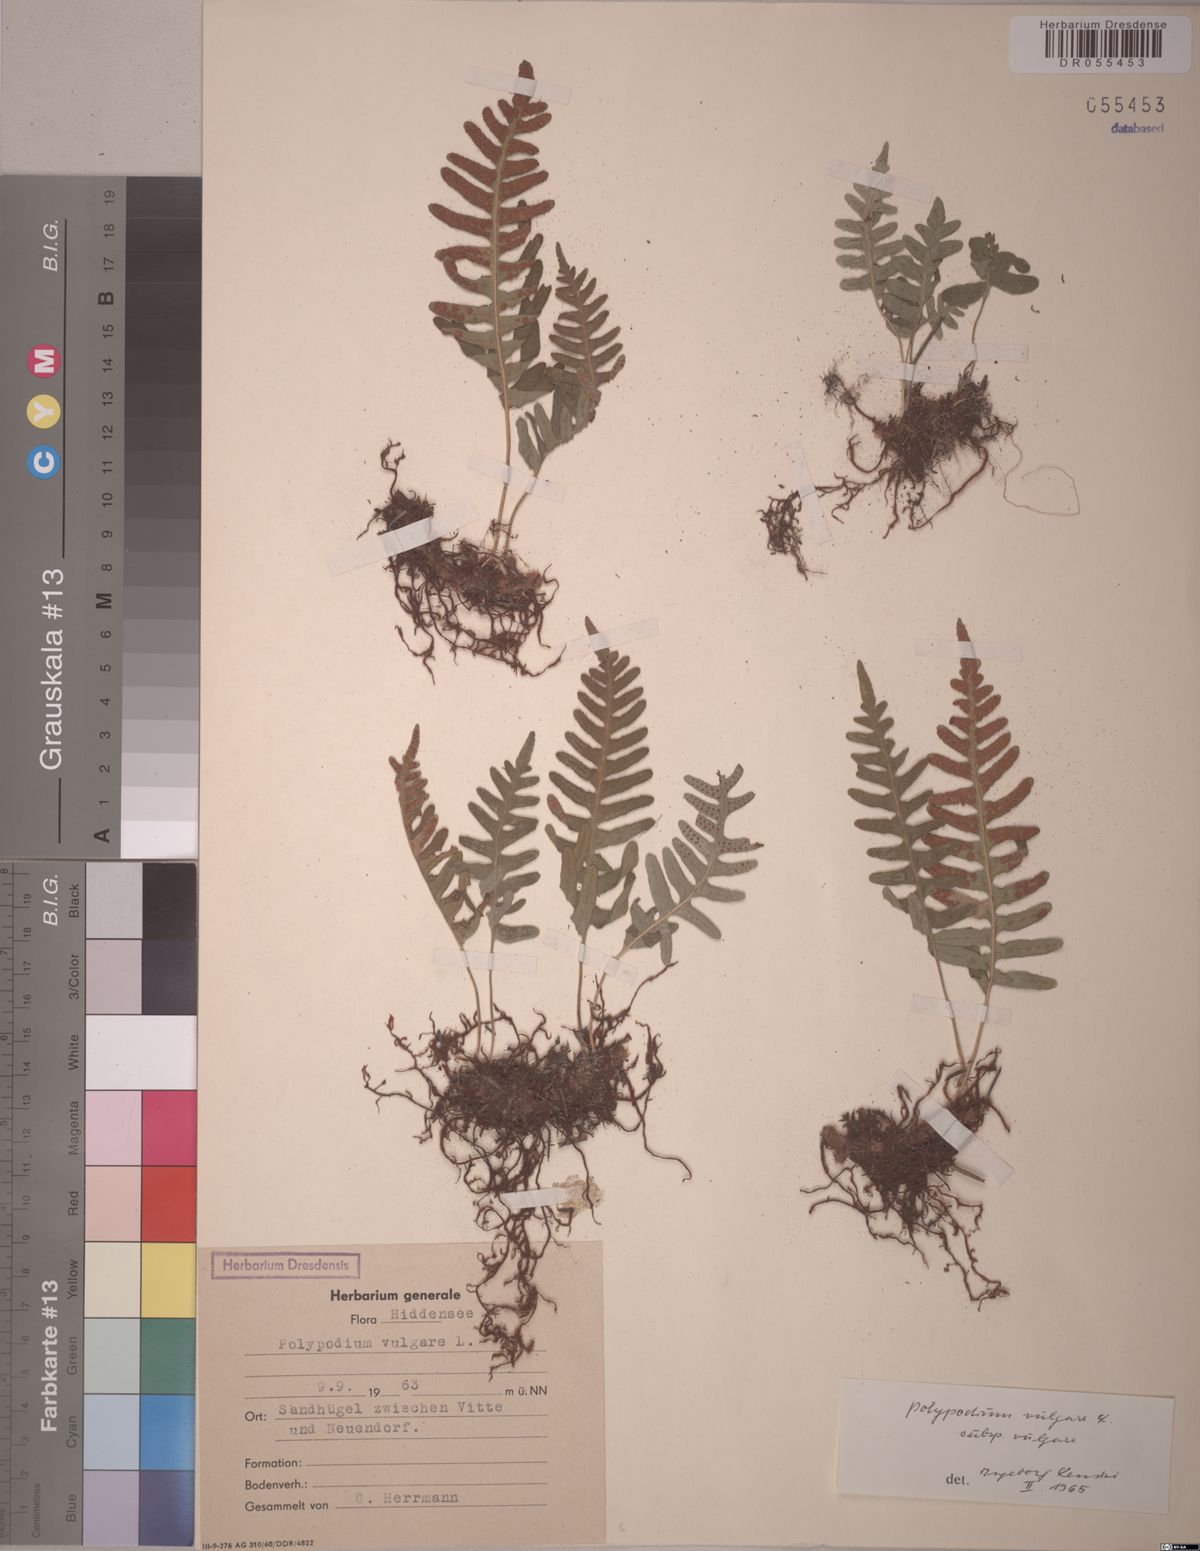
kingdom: Plantae
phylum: Tracheophyta
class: Polypodiopsida
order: Polypodiales
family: Polypodiaceae
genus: Polypodium
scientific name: Polypodium vulgare
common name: Common polypody
